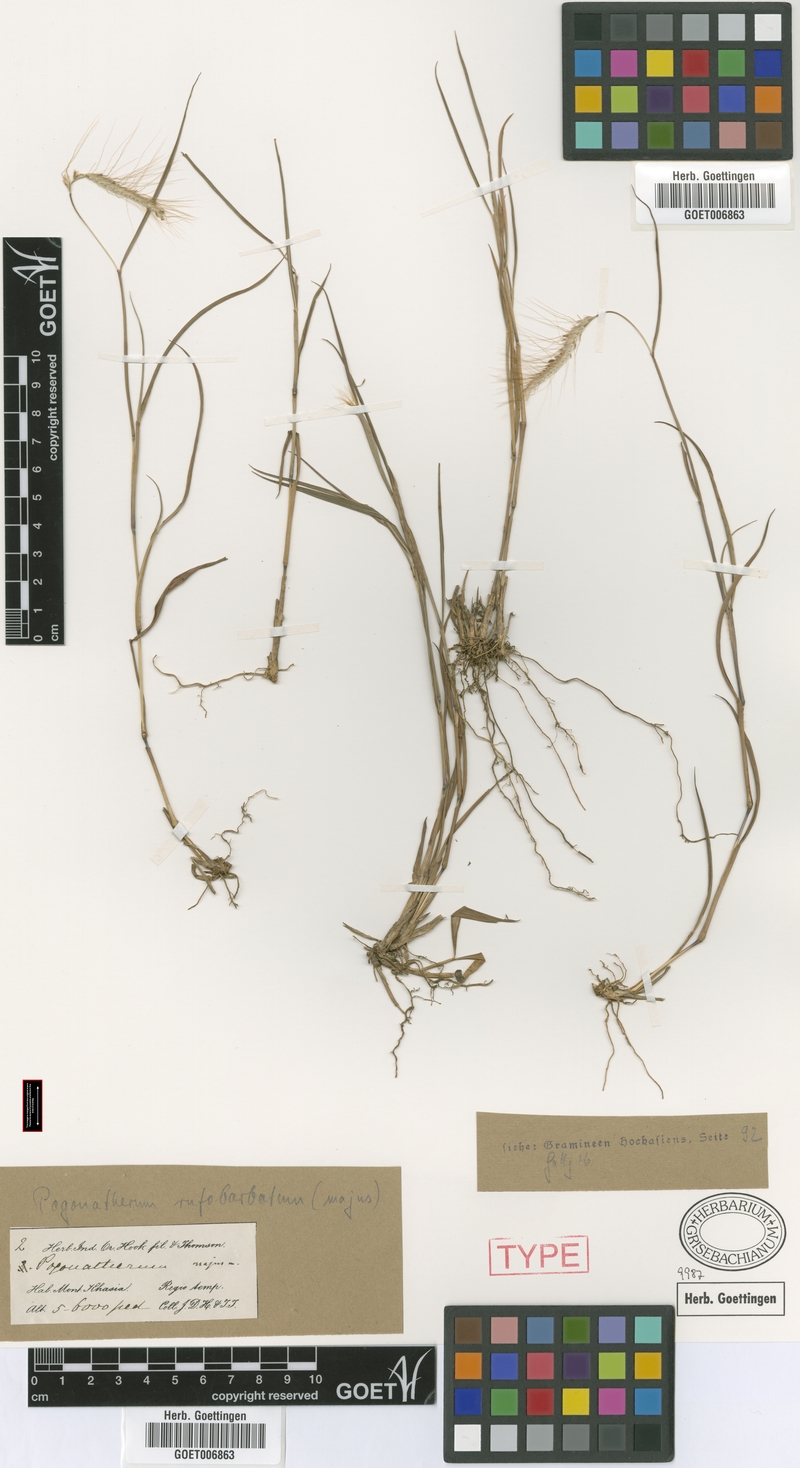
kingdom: Plantae
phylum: Tracheophyta
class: Liliopsida
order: Poales
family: Poaceae
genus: Pogonatherum
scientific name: Pogonatherum rufobarbatum
